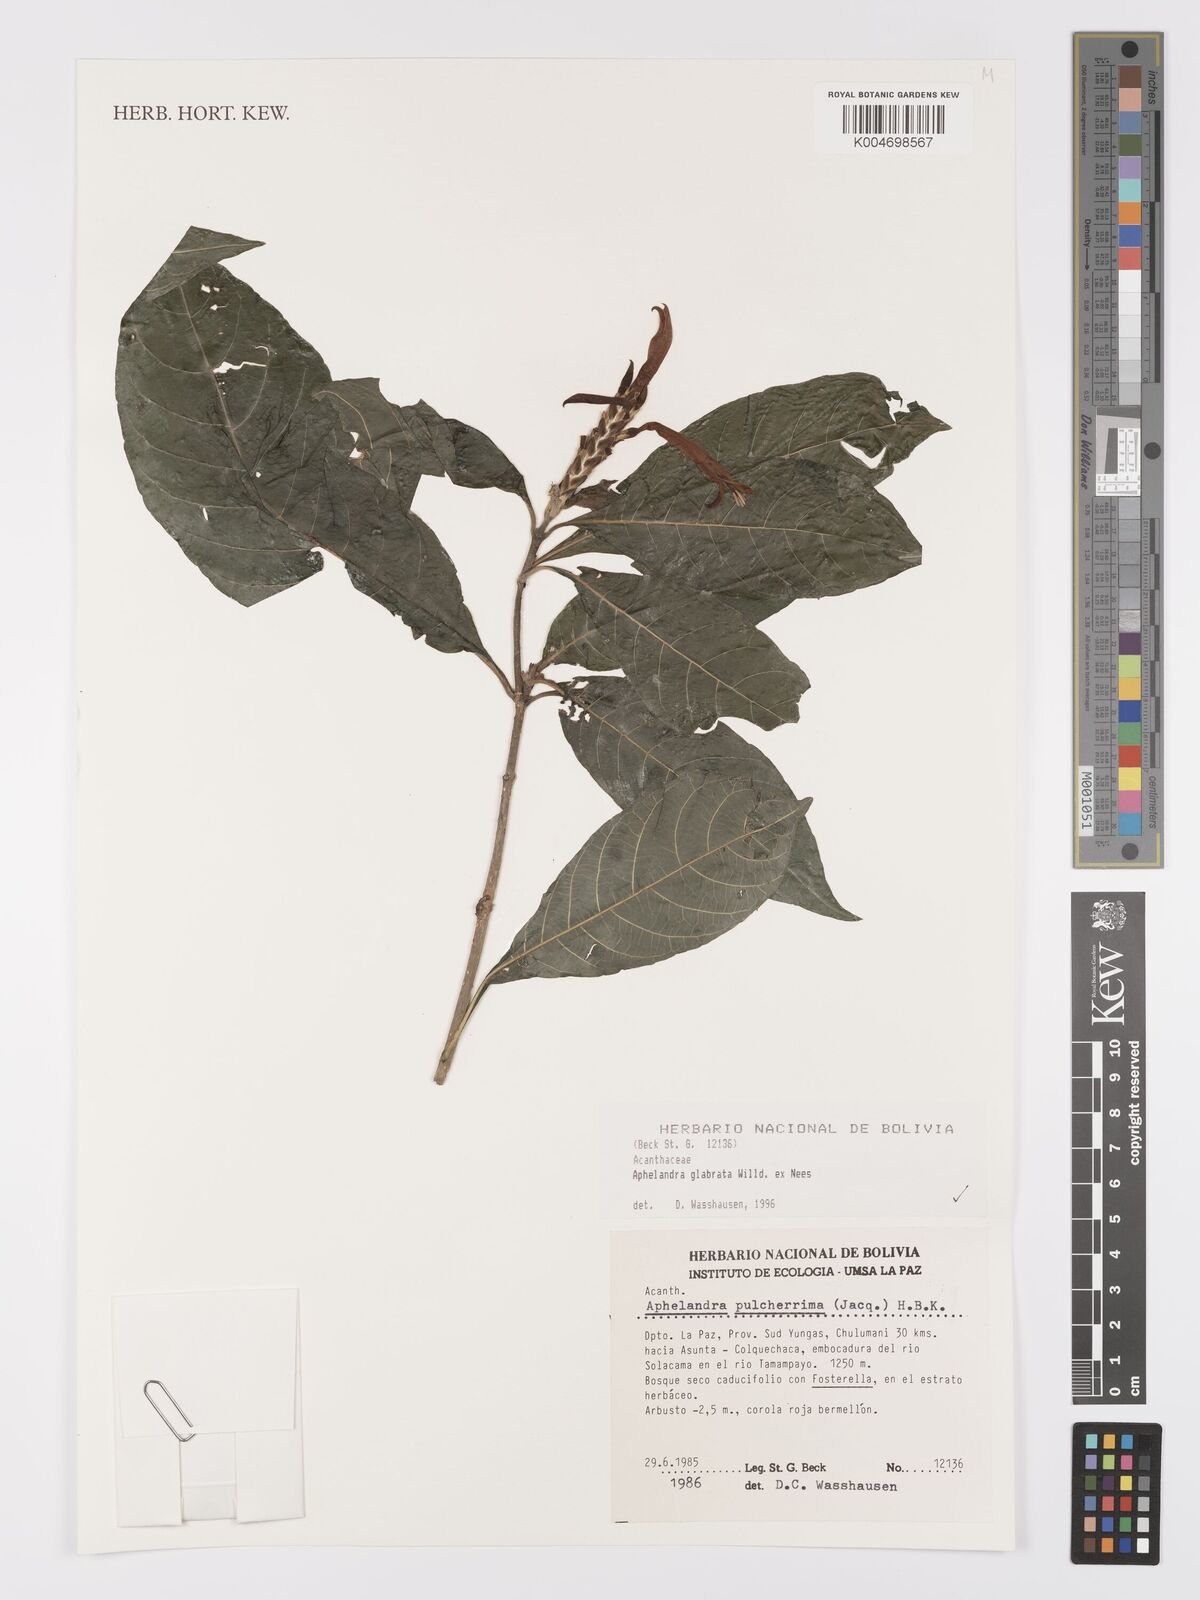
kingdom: Plantae
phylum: Tracheophyta
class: Magnoliopsida
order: Lamiales
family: Acanthaceae
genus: Aphelandra
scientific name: Aphelandra glabrata
